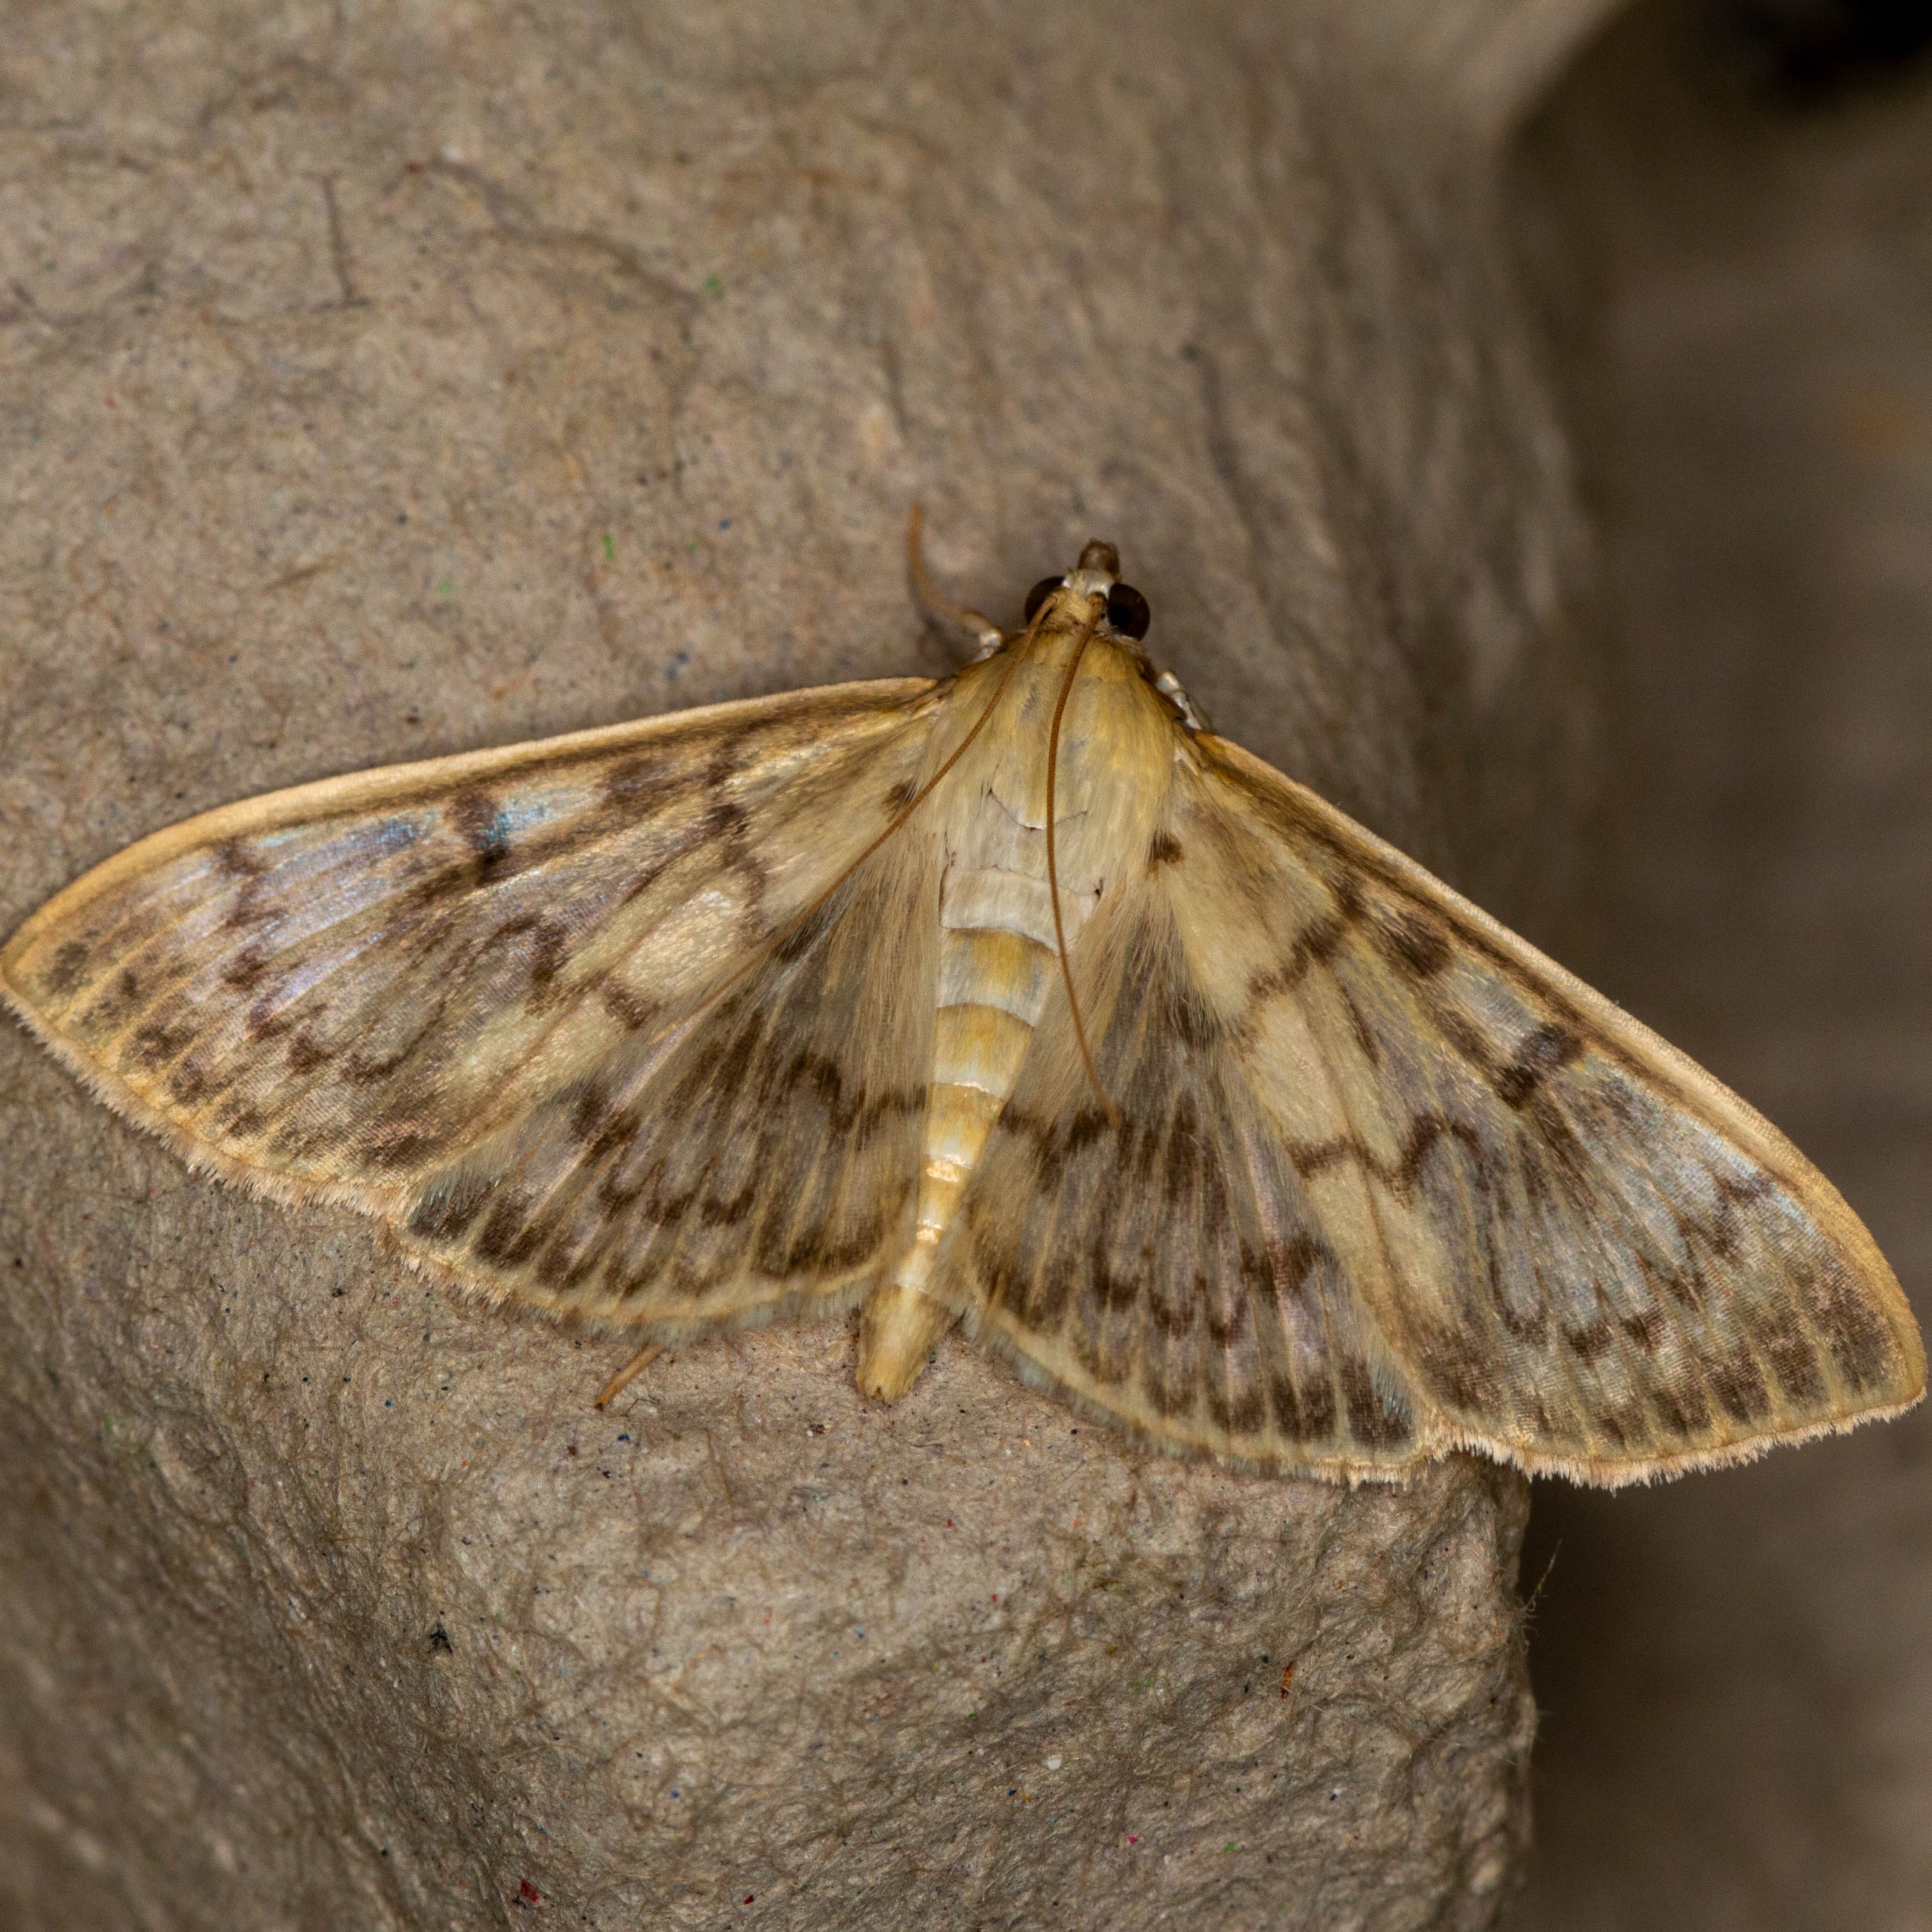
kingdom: Animalia
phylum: Arthropoda
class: Insecta
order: Lepidoptera
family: Crambidae
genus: Patania
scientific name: Patania ruralis
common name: Perlemorshalvmøl
